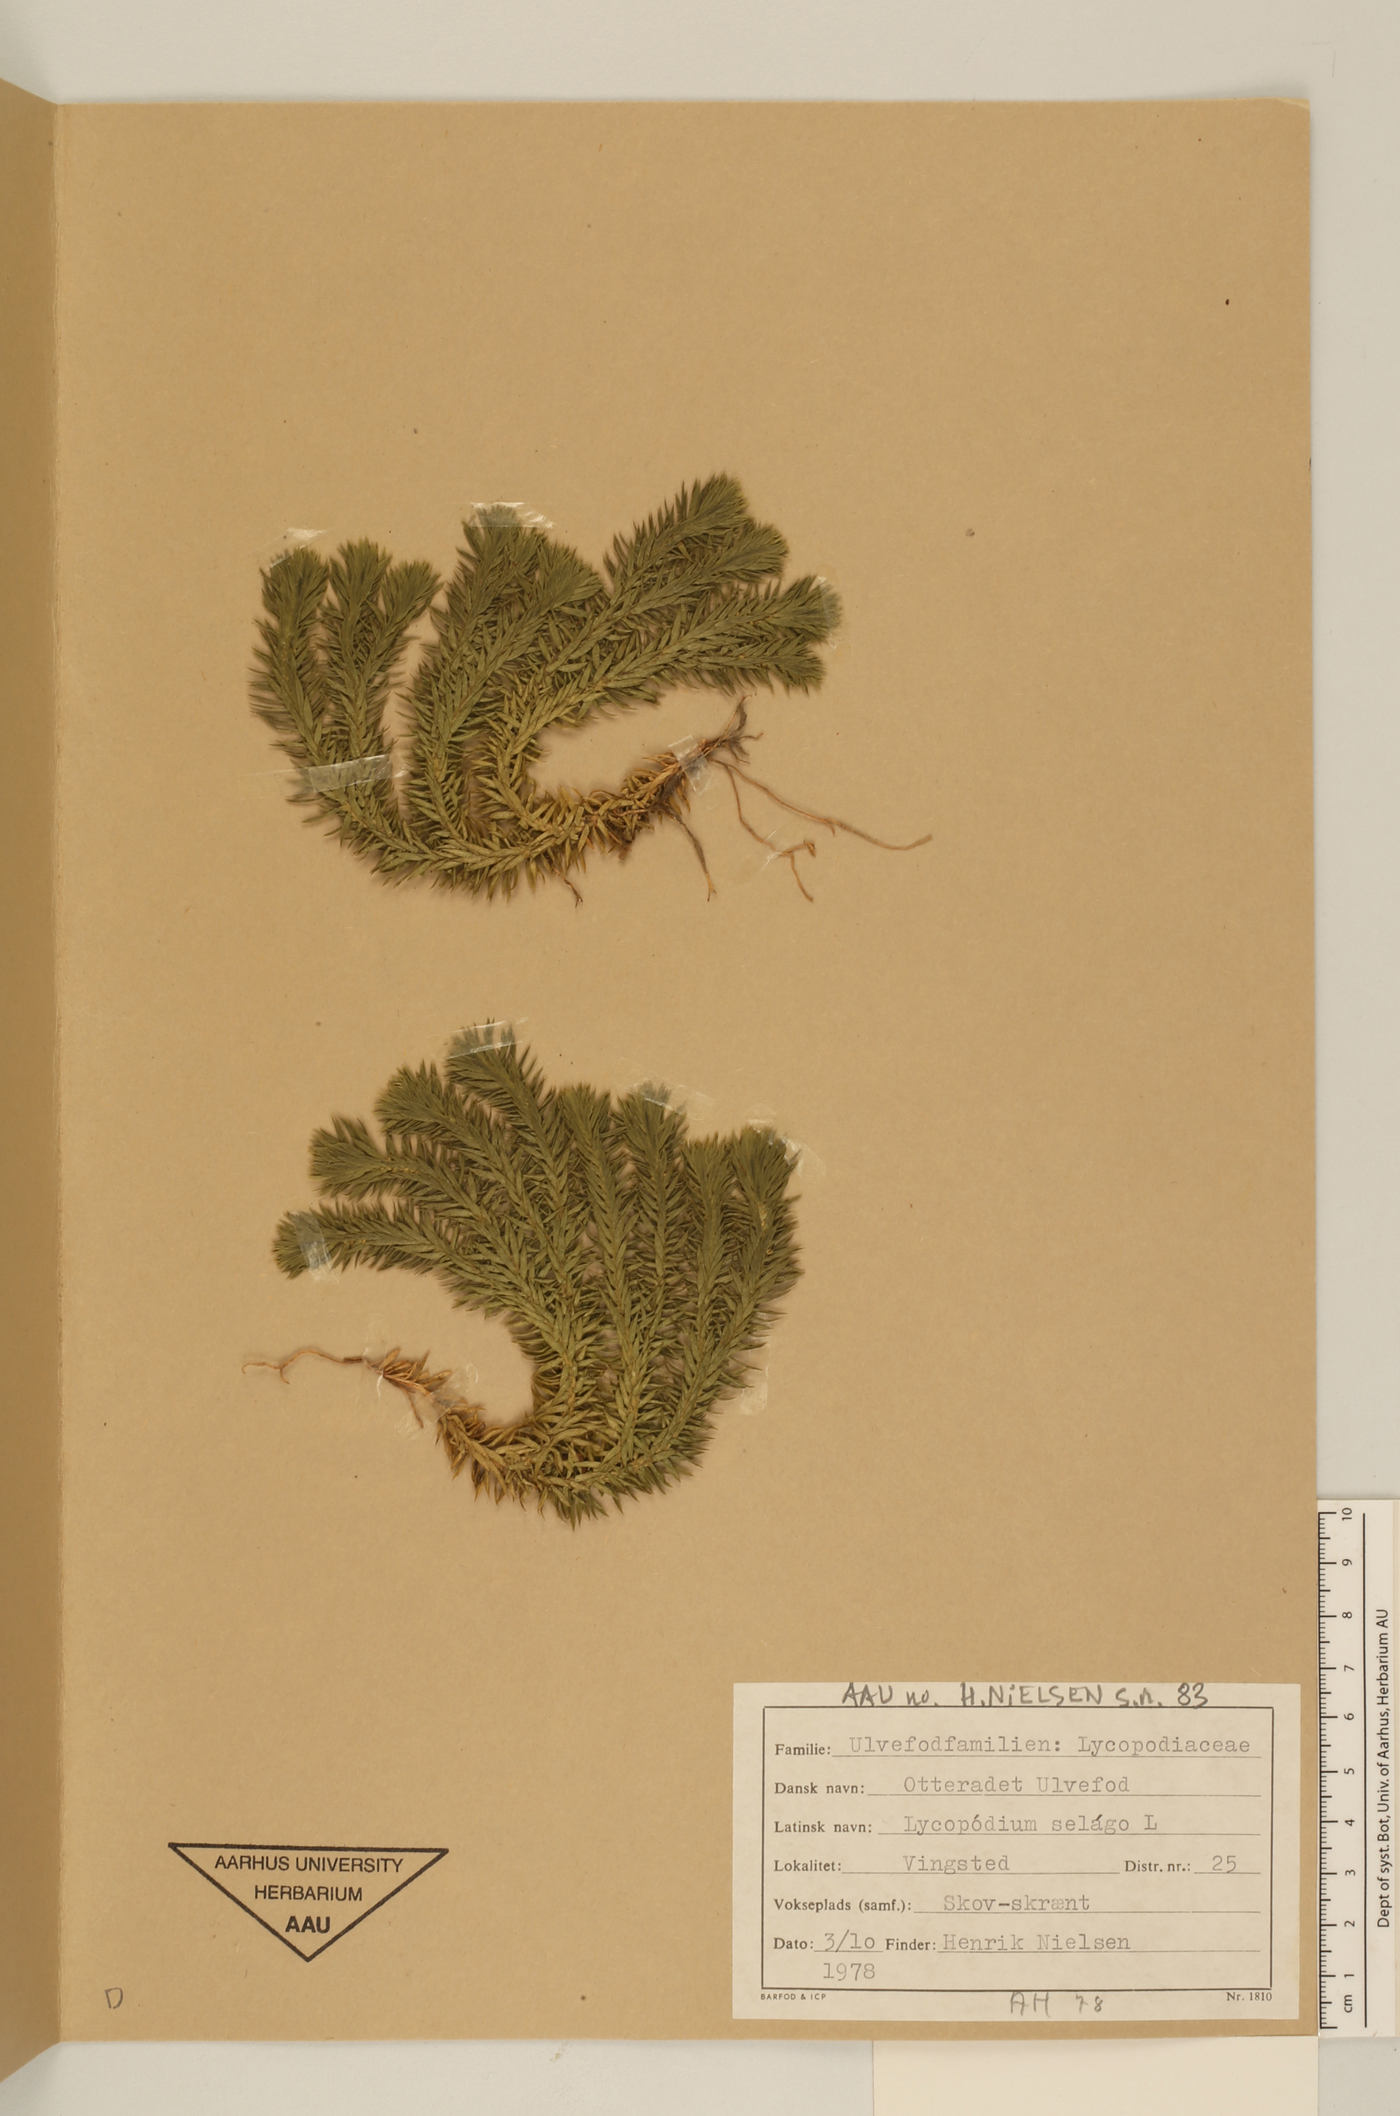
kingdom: Plantae
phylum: Tracheophyta
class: Lycopodiopsida
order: Lycopodiales
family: Lycopodiaceae
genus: Huperzia
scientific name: Huperzia selago
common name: Northern firmoss
